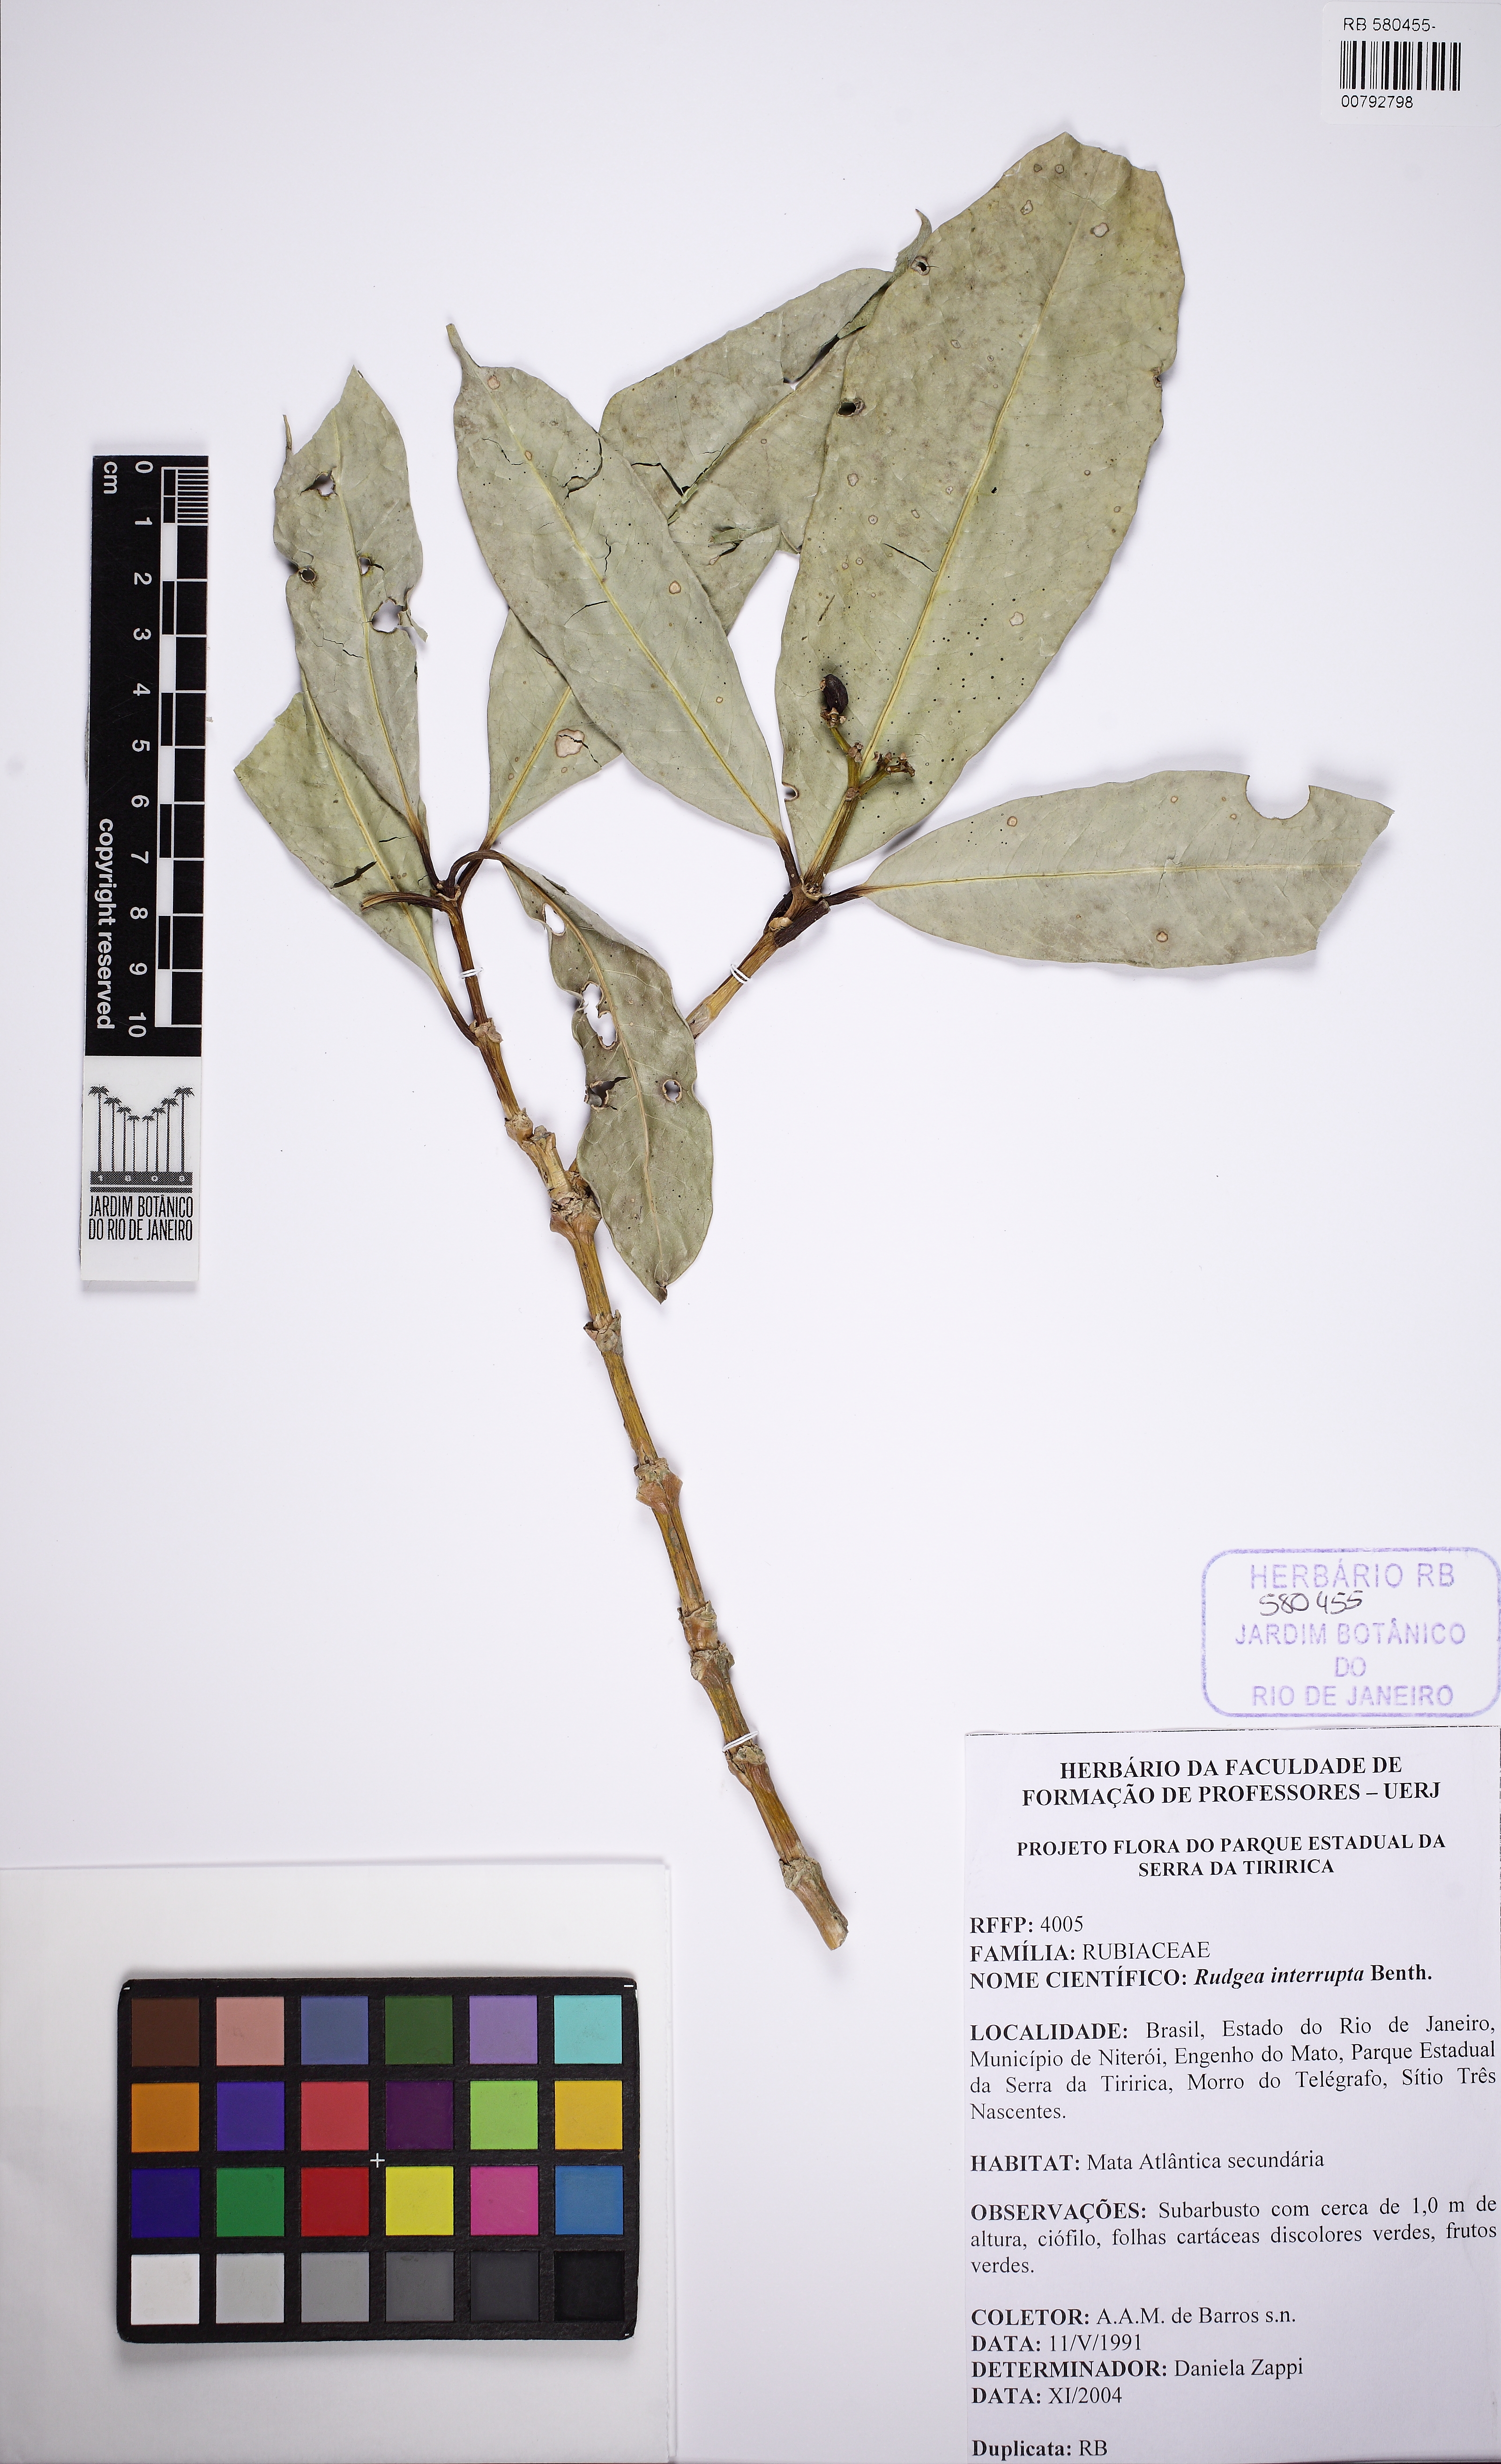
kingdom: Plantae
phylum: Tracheophyta
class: Magnoliopsida
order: Gentianales
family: Rubiaceae
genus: Rudgea
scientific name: Rudgea interrupta
